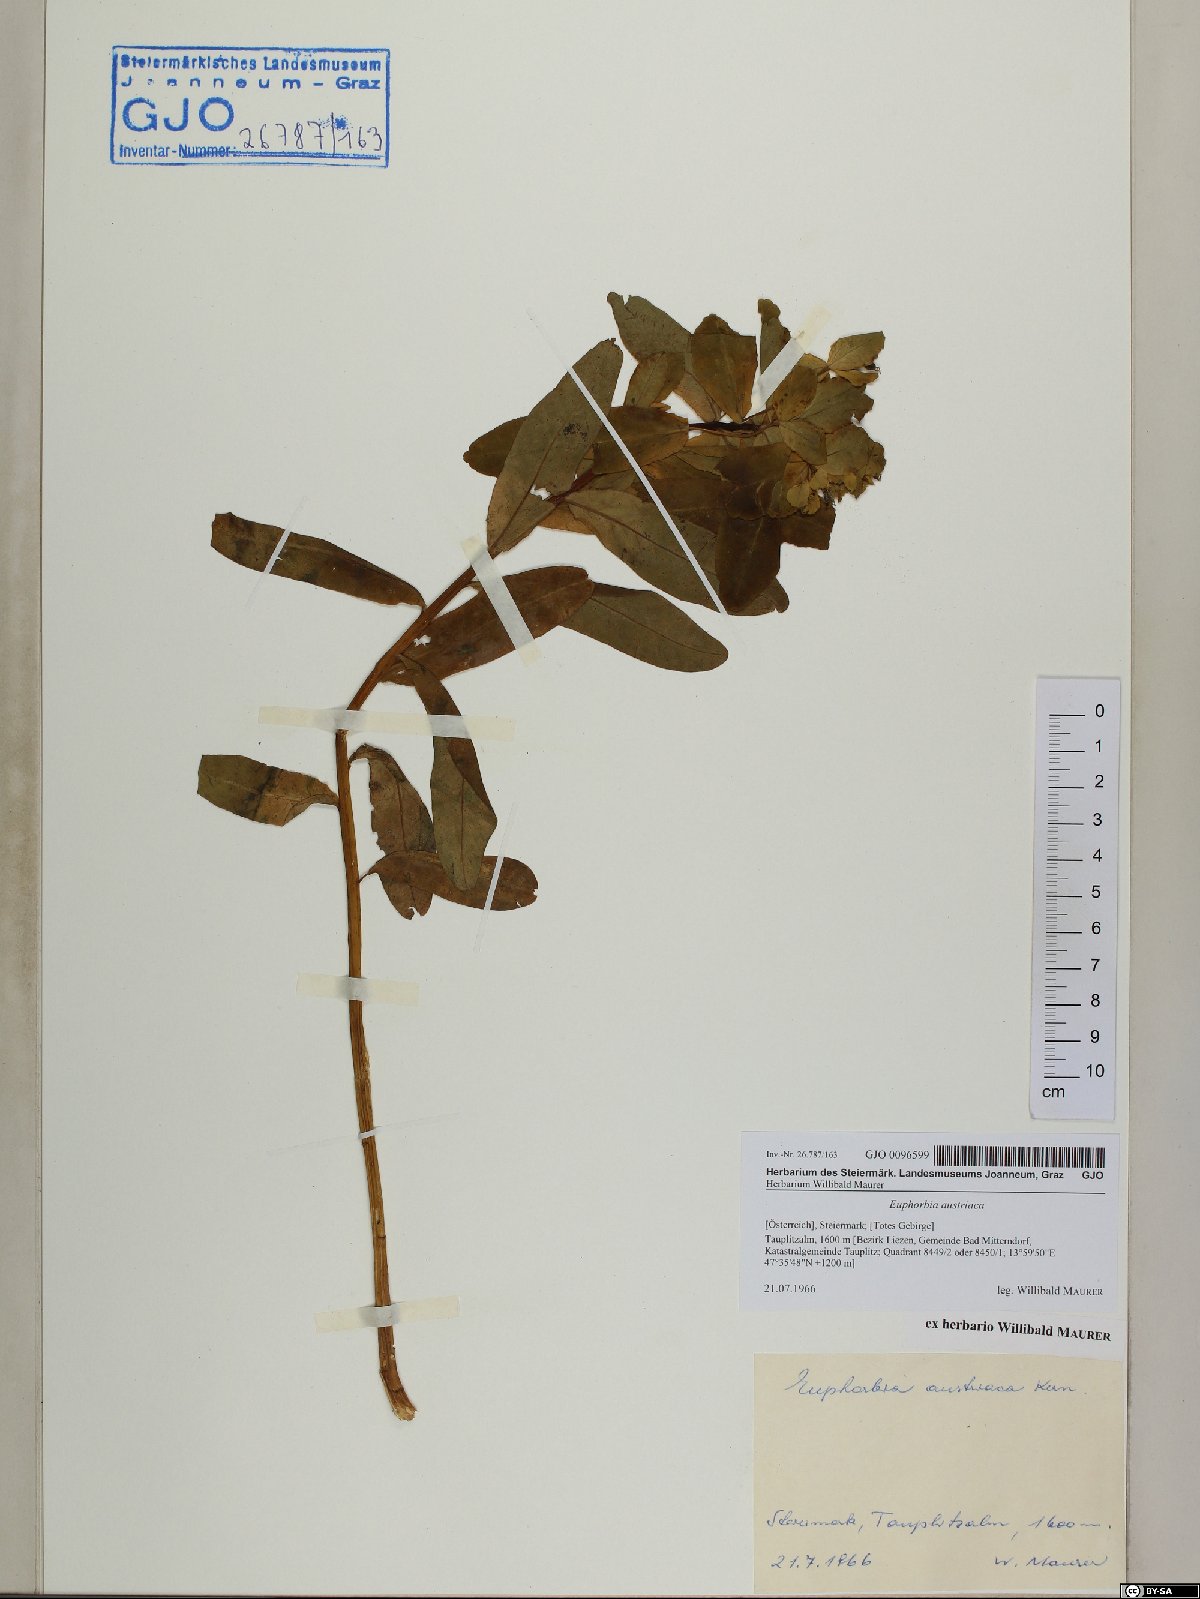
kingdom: Plantae
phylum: Tracheophyta
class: Magnoliopsida
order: Malpighiales
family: Euphorbiaceae
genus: Euphorbia
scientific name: Euphorbia austriaca
